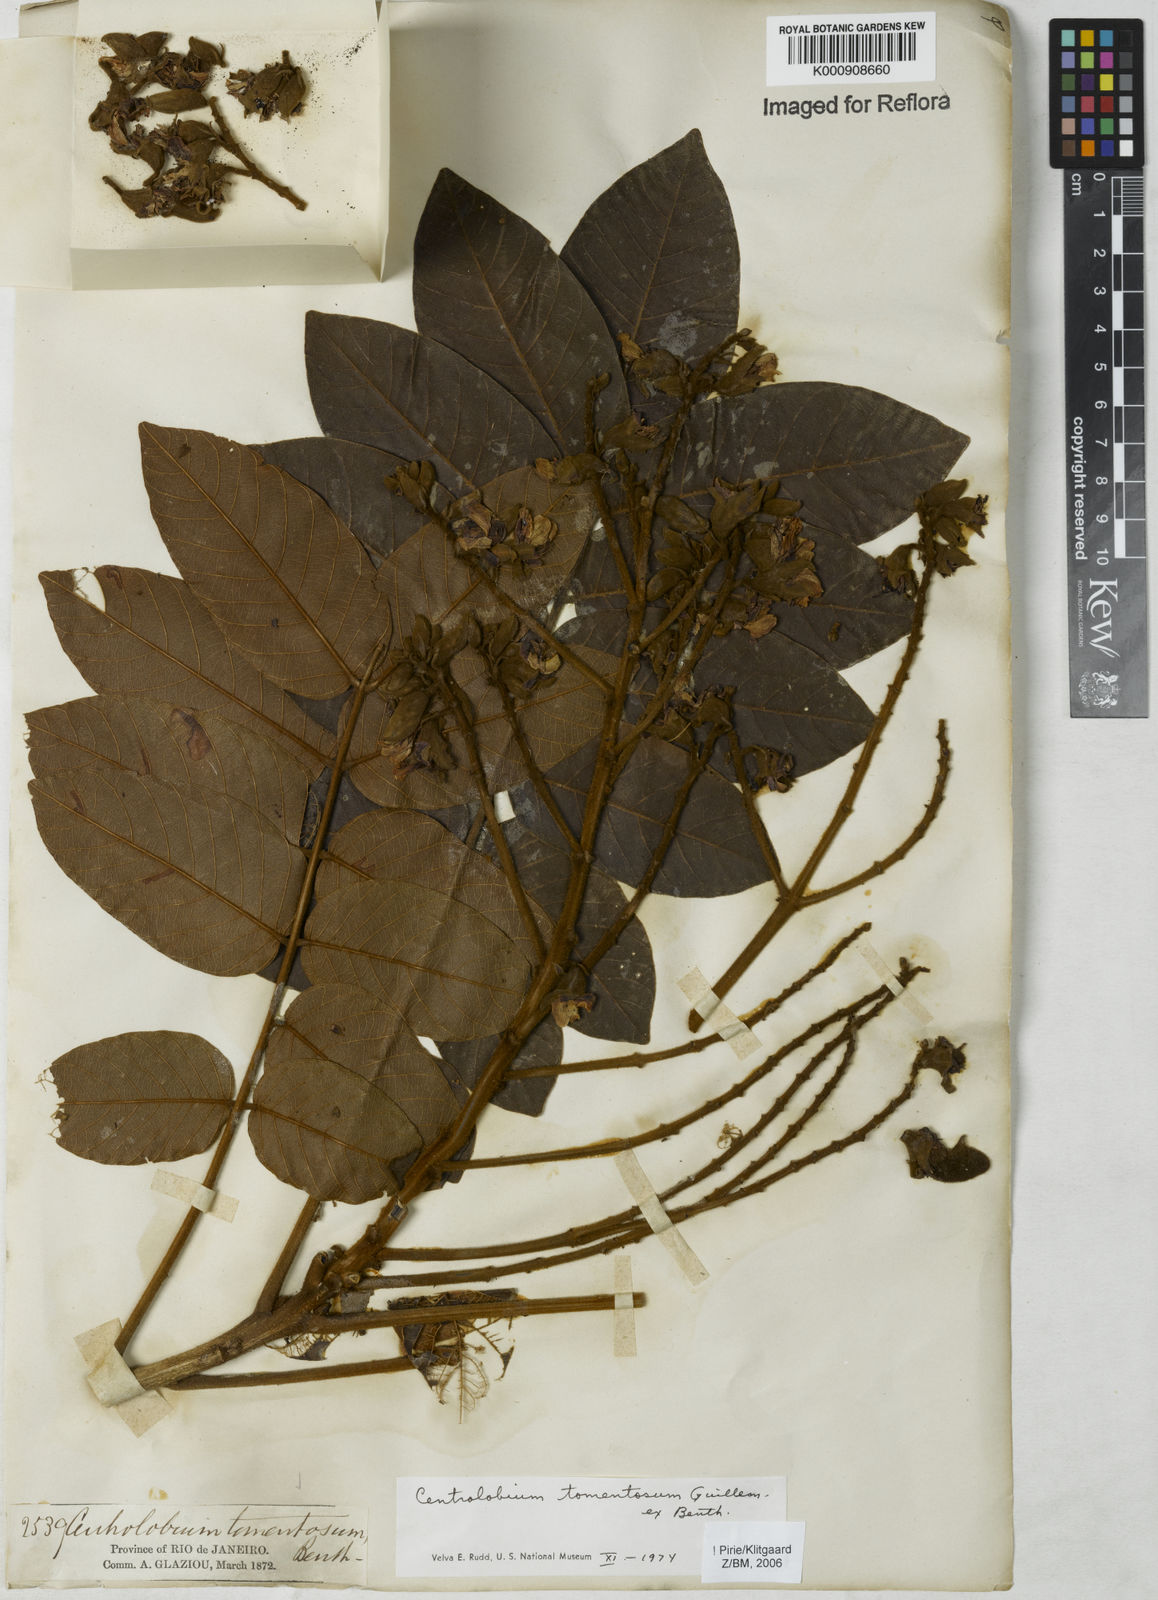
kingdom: Plantae
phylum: Tracheophyta
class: Magnoliopsida
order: Fabales
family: Fabaceae
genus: Centrolobium
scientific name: Centrolobium tomentosum
